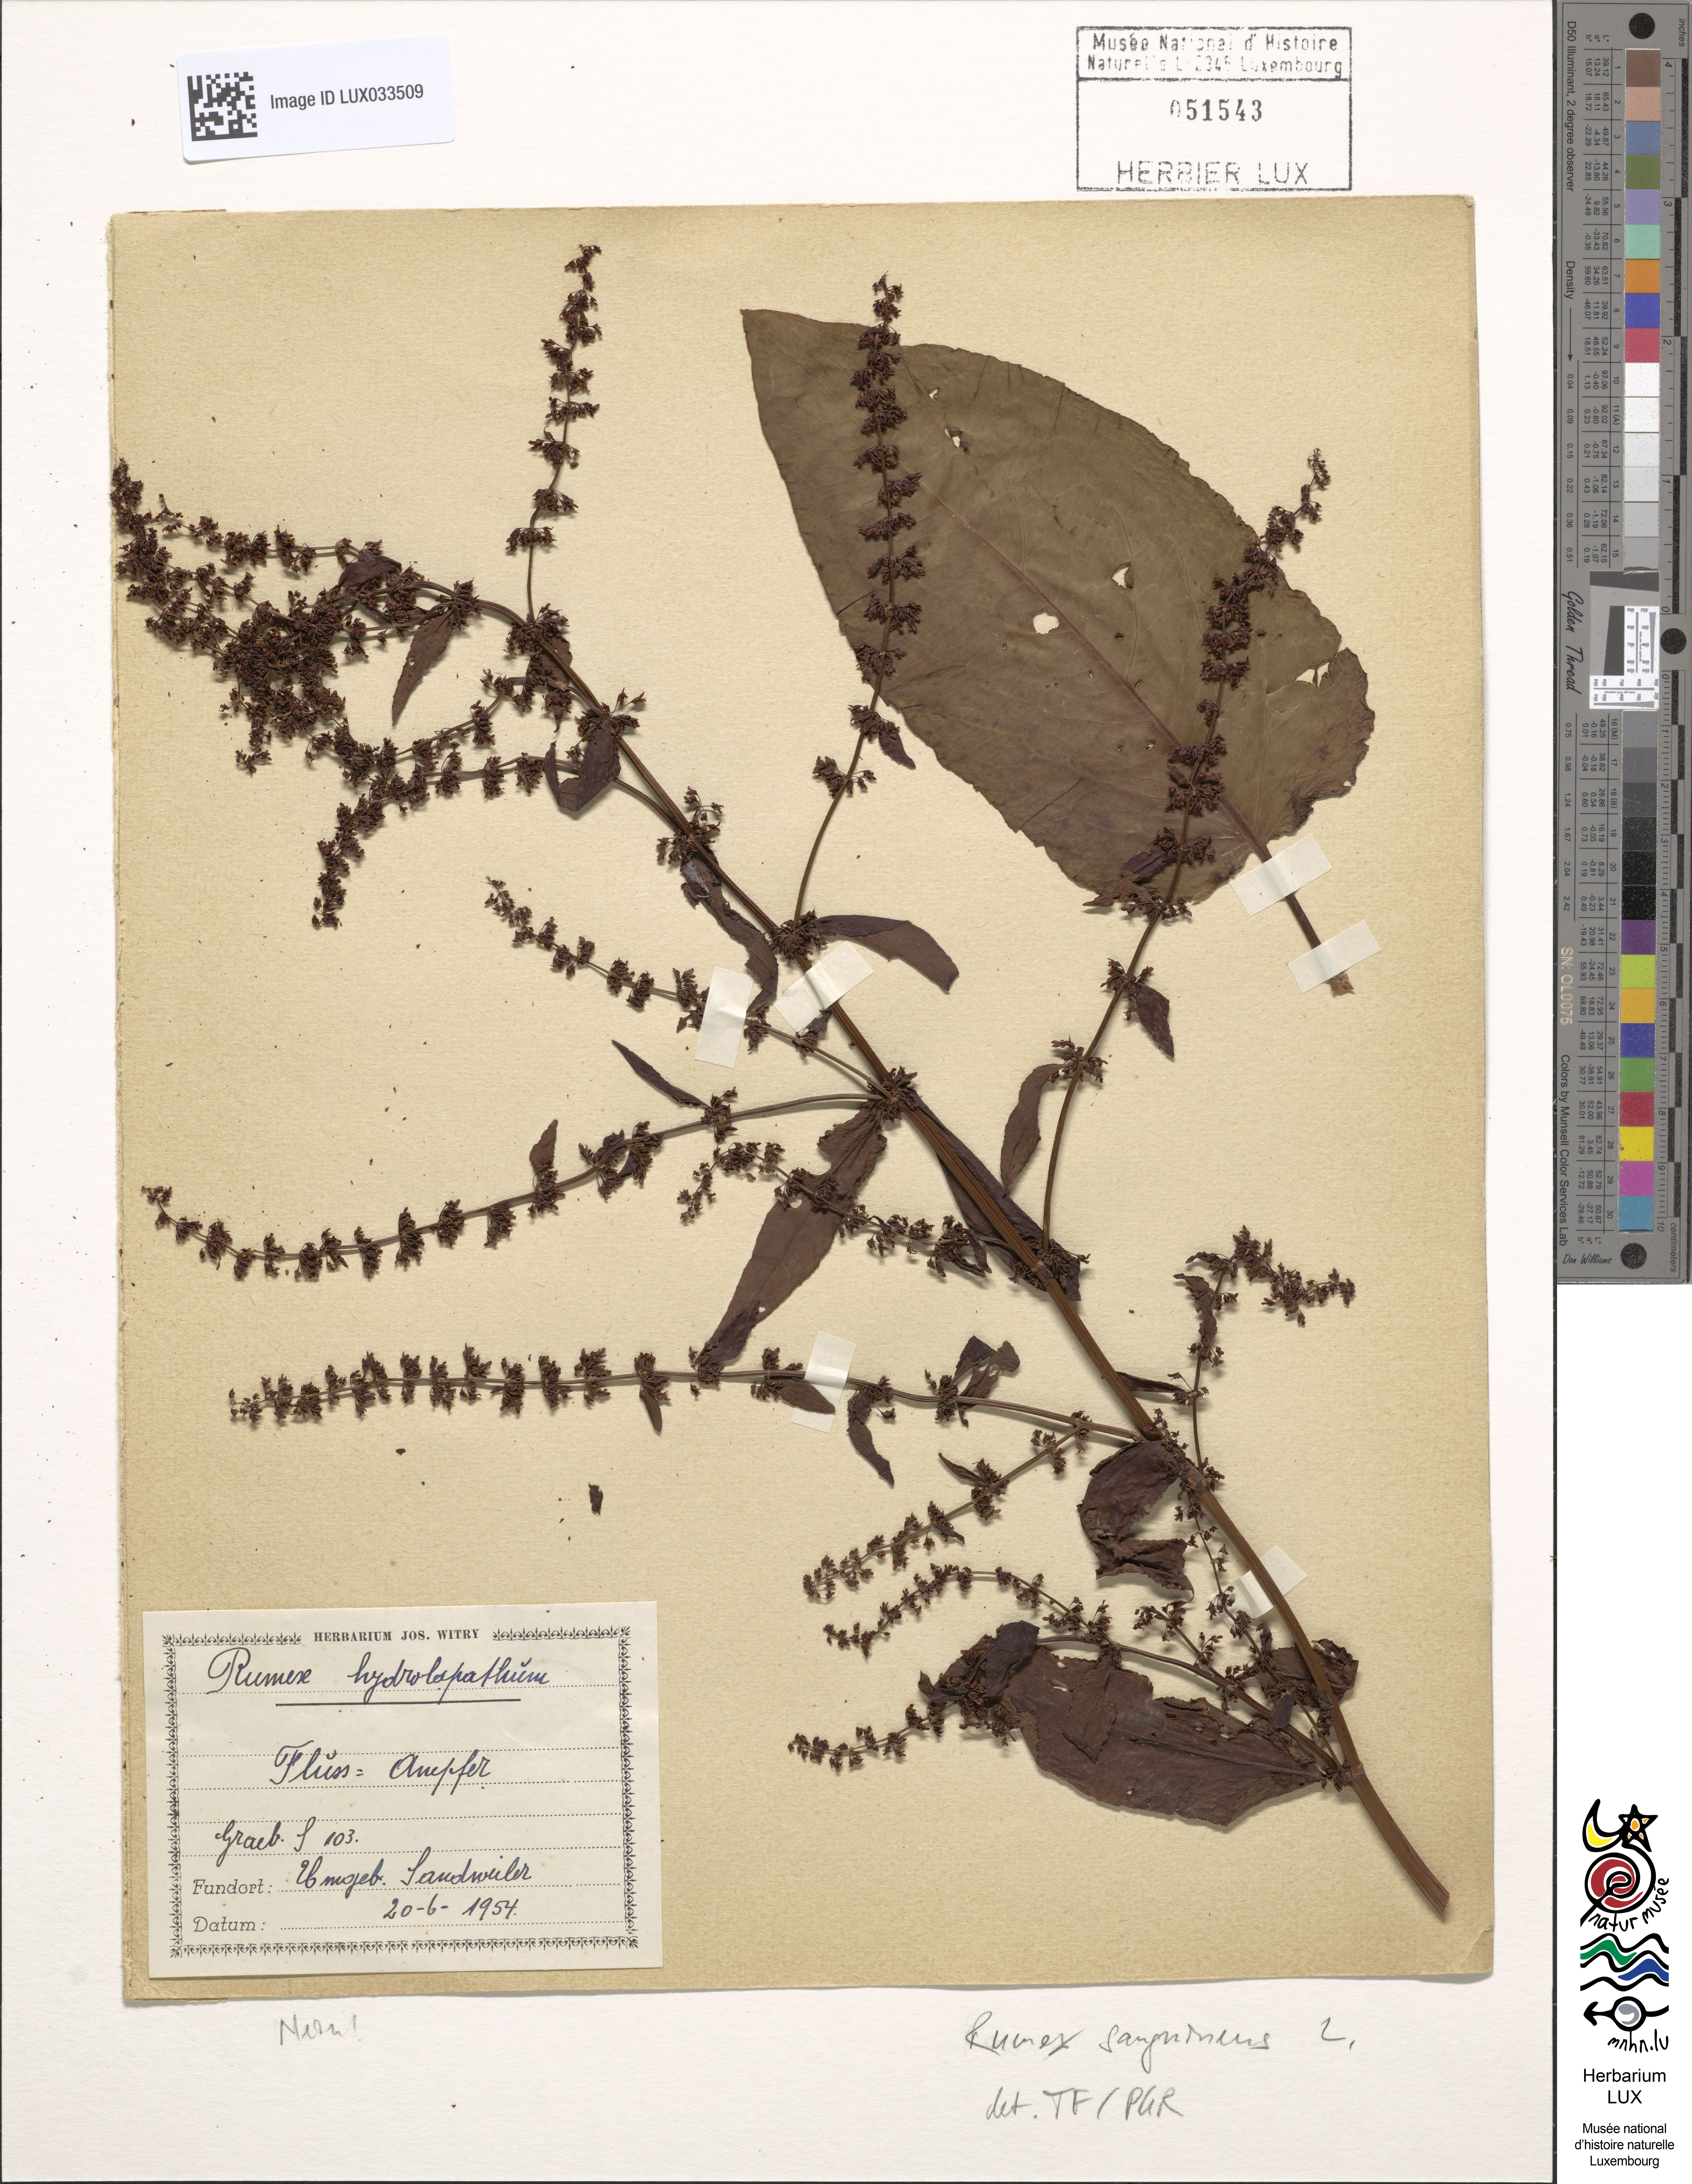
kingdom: Plantae
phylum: Tracheophyta
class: Magnoliopsida
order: Caryophyllales
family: Polygonaceae
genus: Rumex
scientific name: Rumex sanguineus
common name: Wood dock
